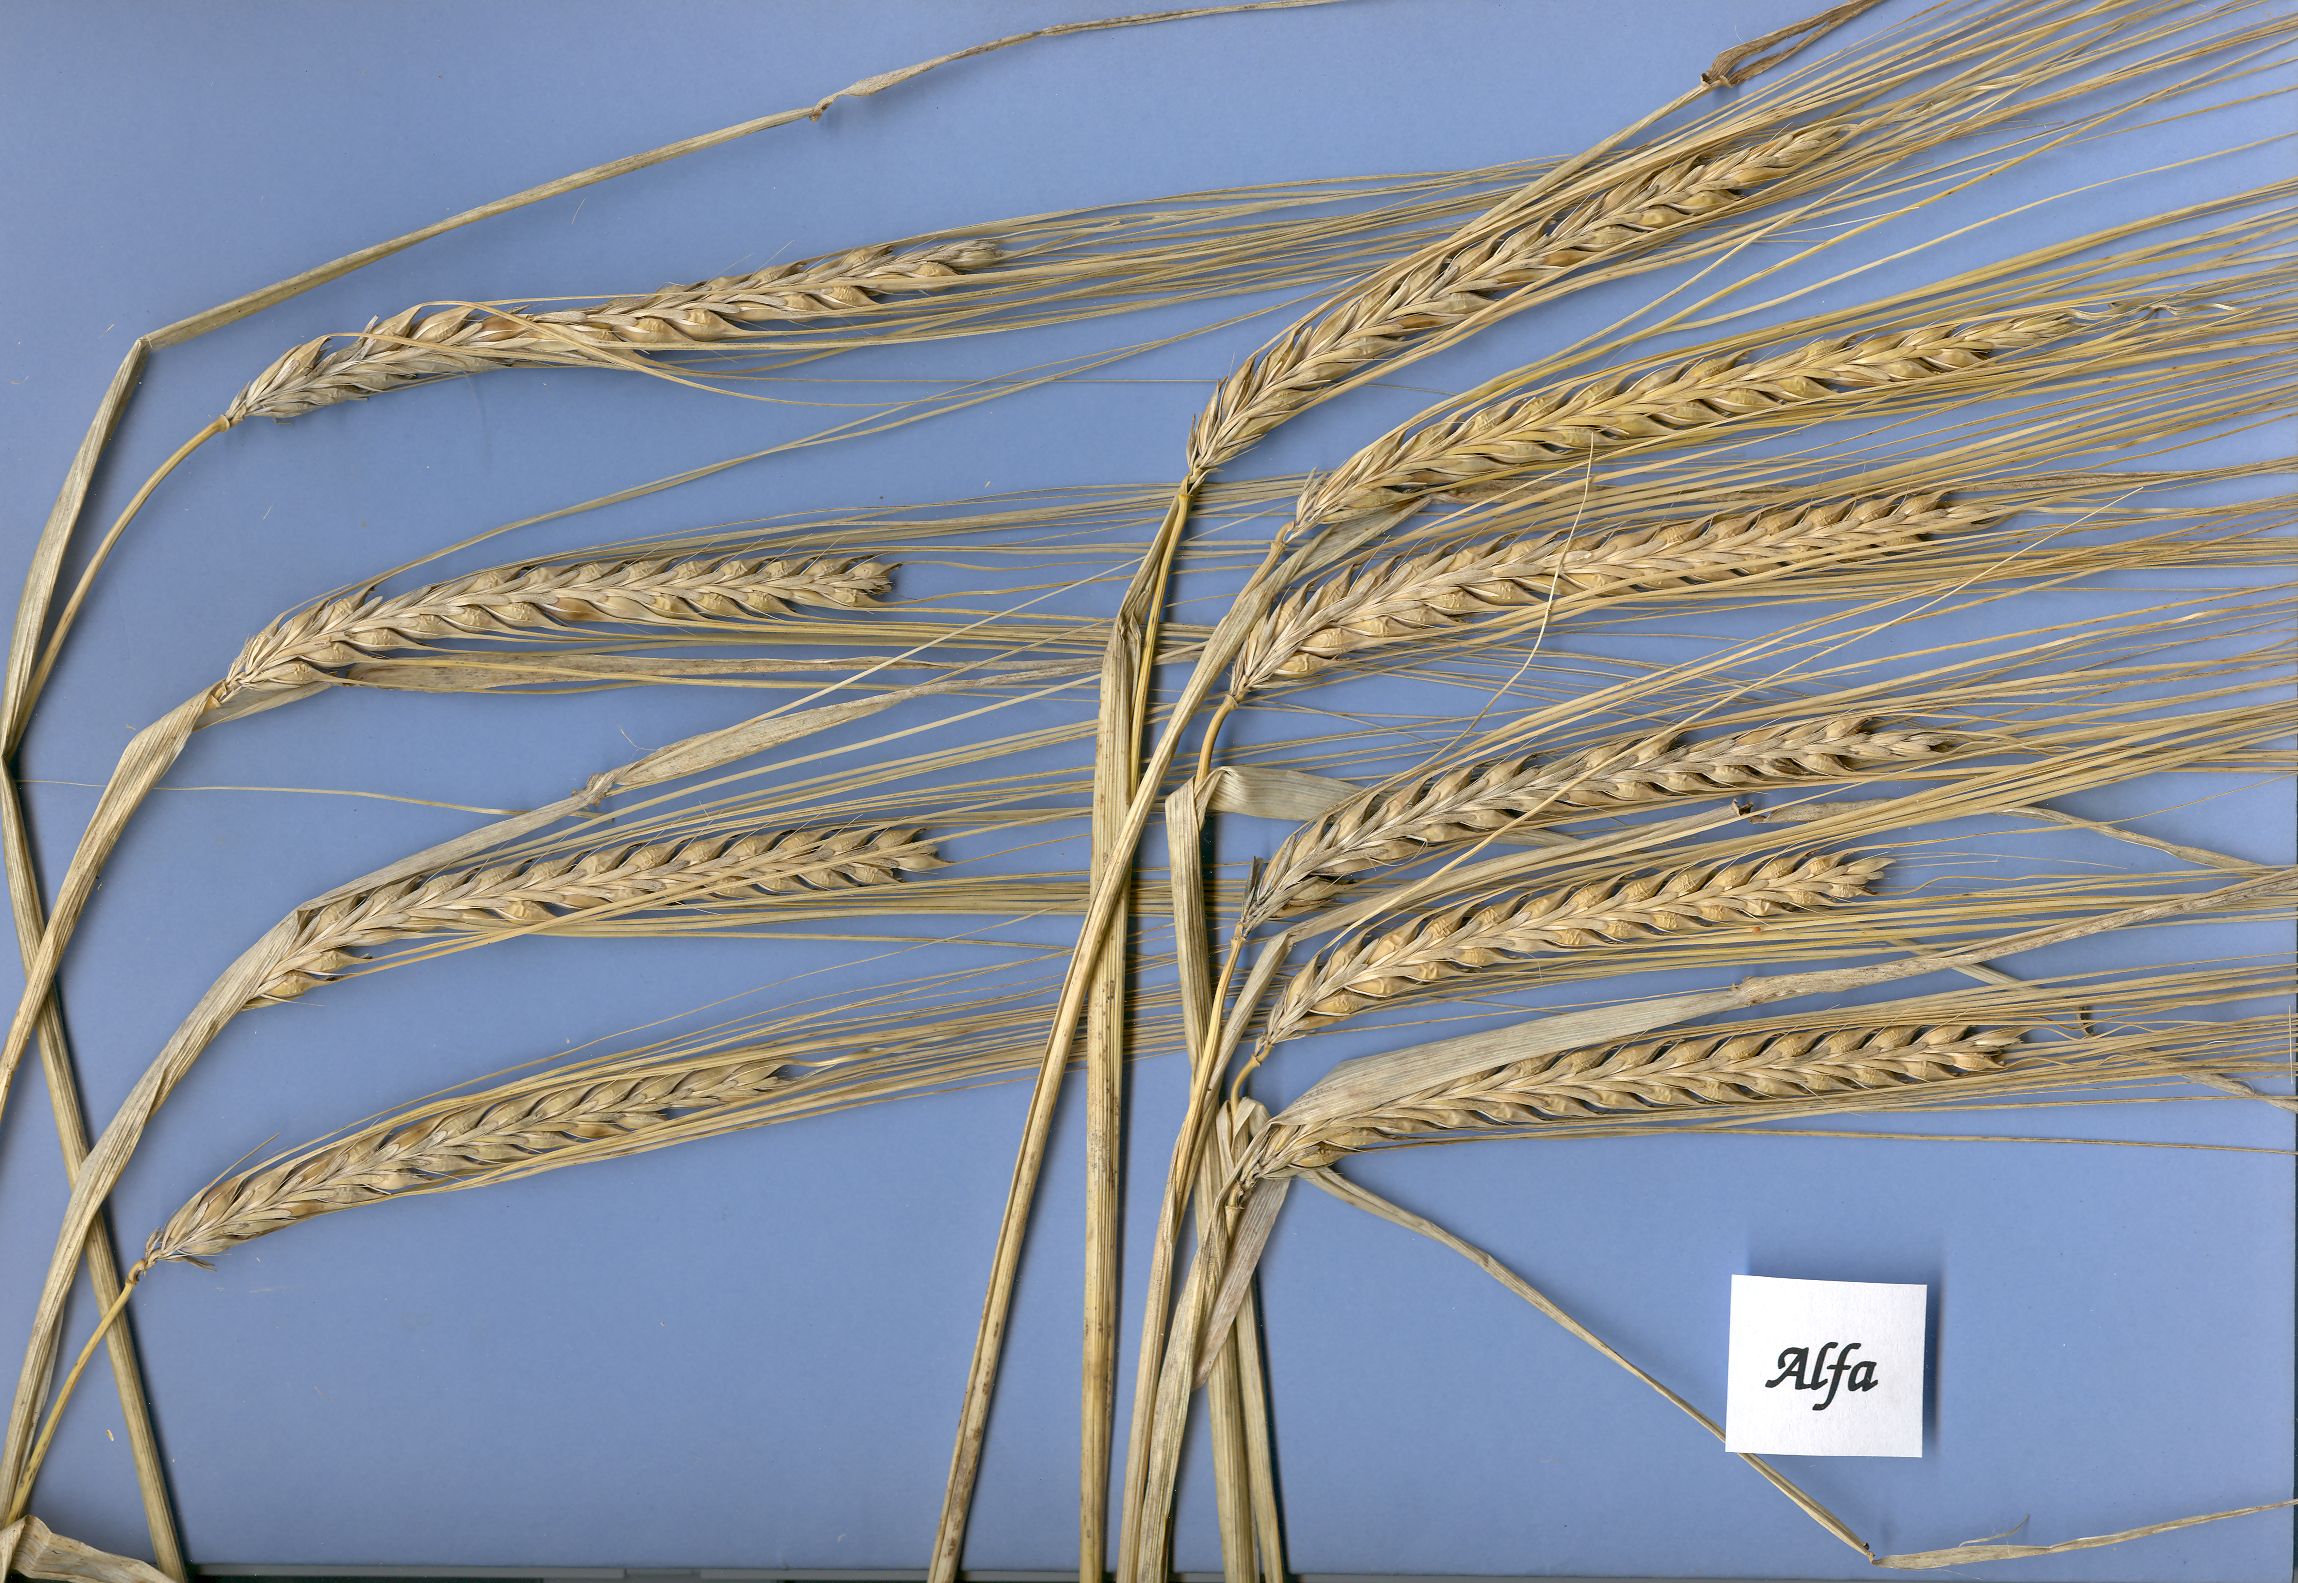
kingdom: Plantae
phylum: Tracheophyta
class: Liliopsida
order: Poales
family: Poaceae
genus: Hordeum
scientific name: Hordeum vulgare
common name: Common barley
